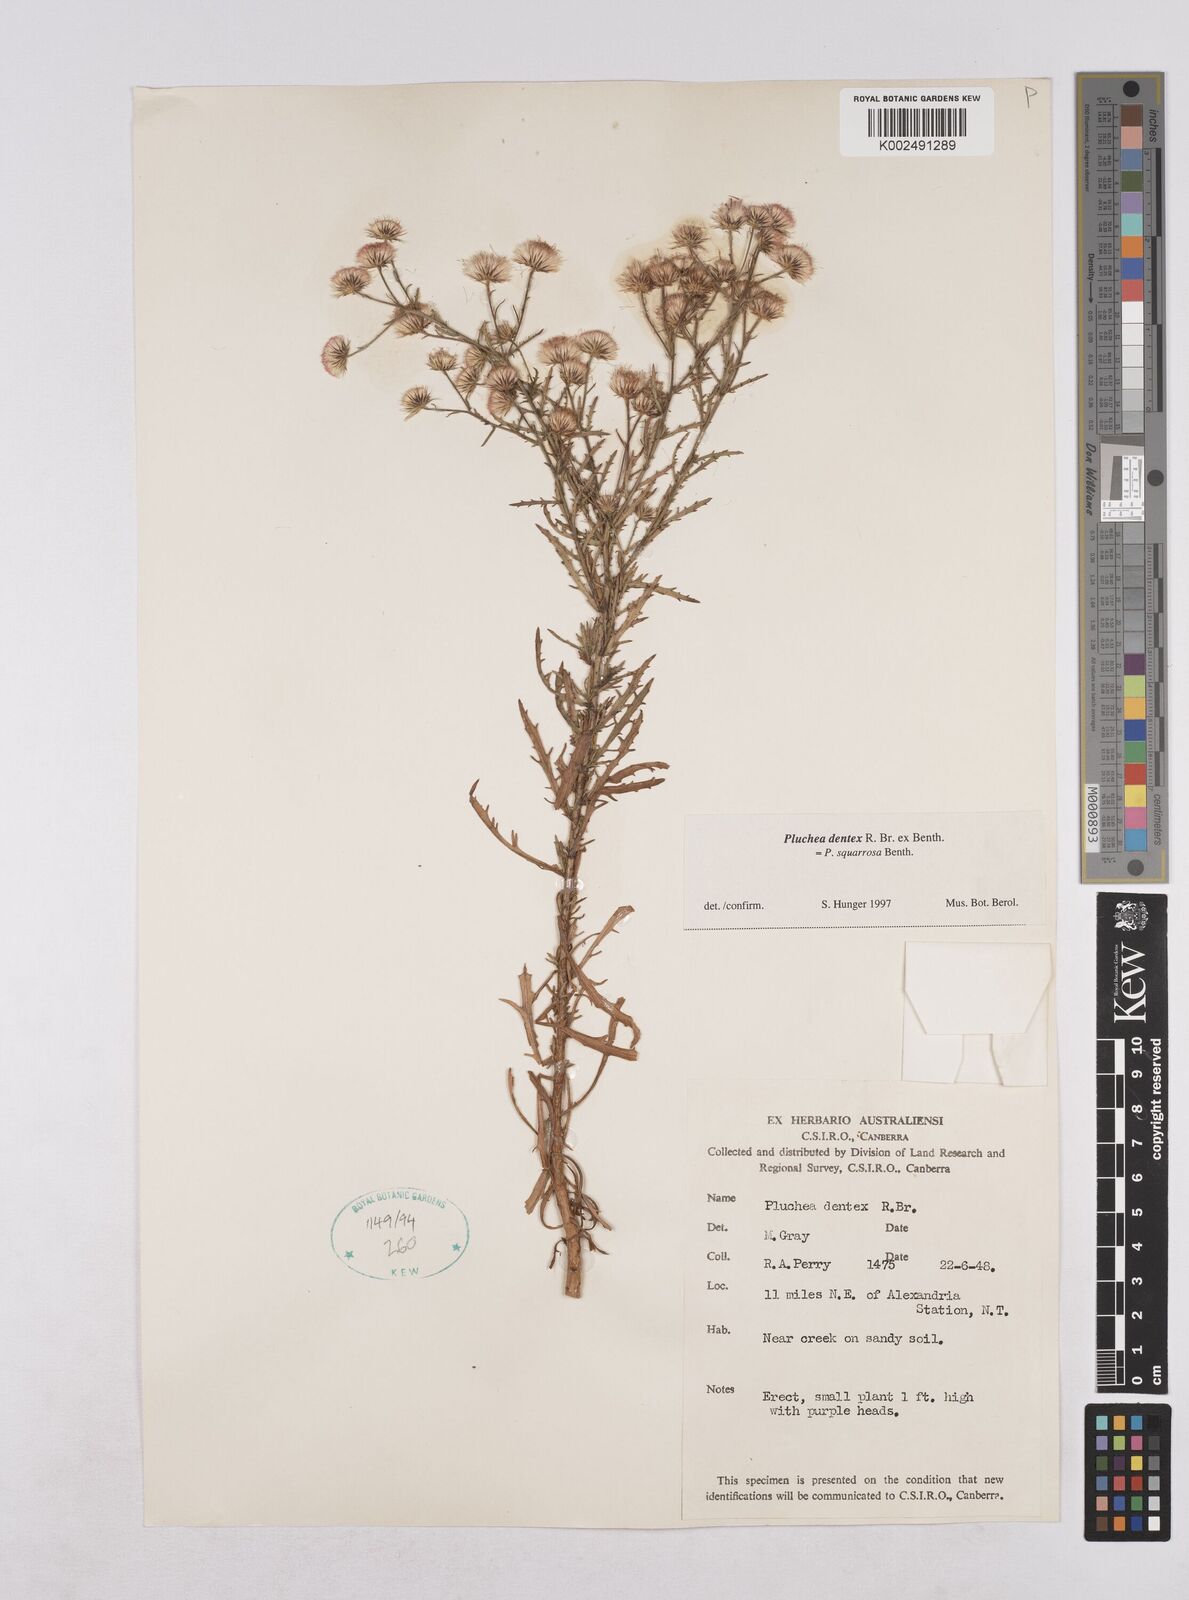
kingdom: Plantae
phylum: Tracheophyta
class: Magnoliopsida
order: Asterales
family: Asteraceae
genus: Pluchea
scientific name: Pluchea dentex
